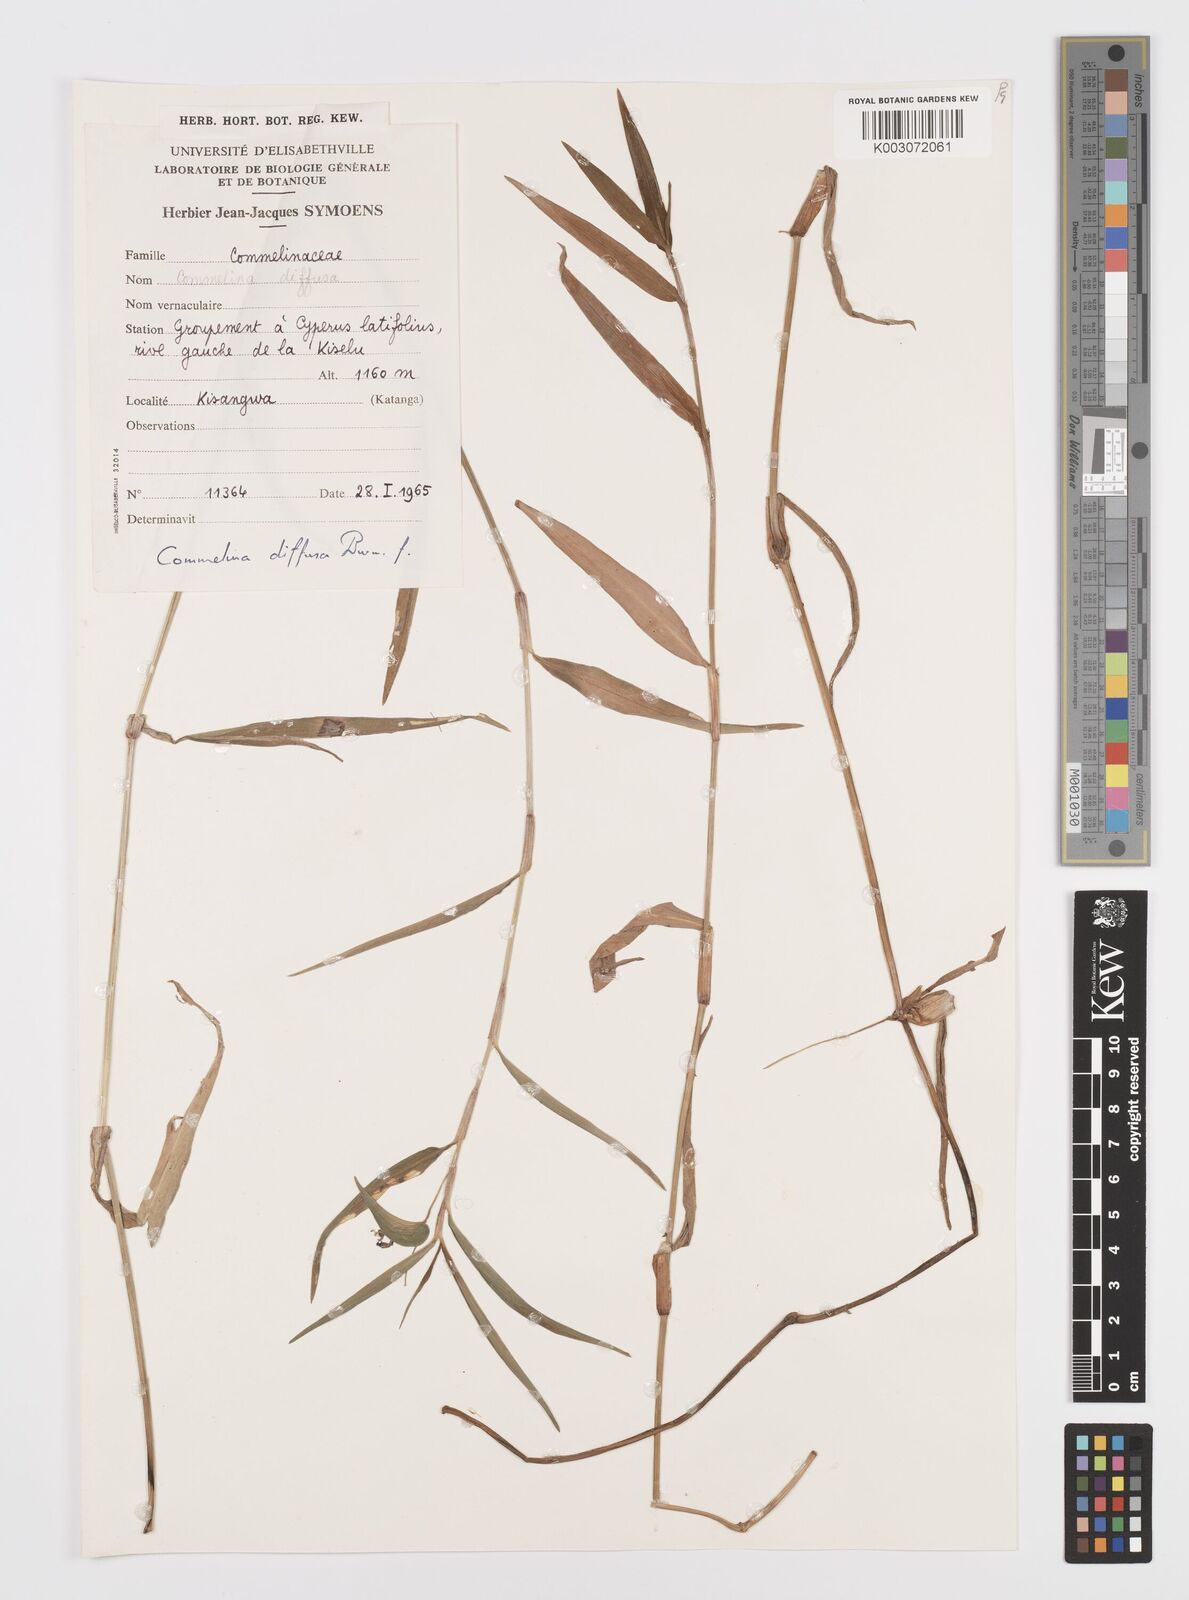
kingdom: Plantae
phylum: Tracheophyta
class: Liliopsida
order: Commelinales
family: Commelinaceae
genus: Commelina
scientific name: Commelina diffusa
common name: Climbing dayflower
